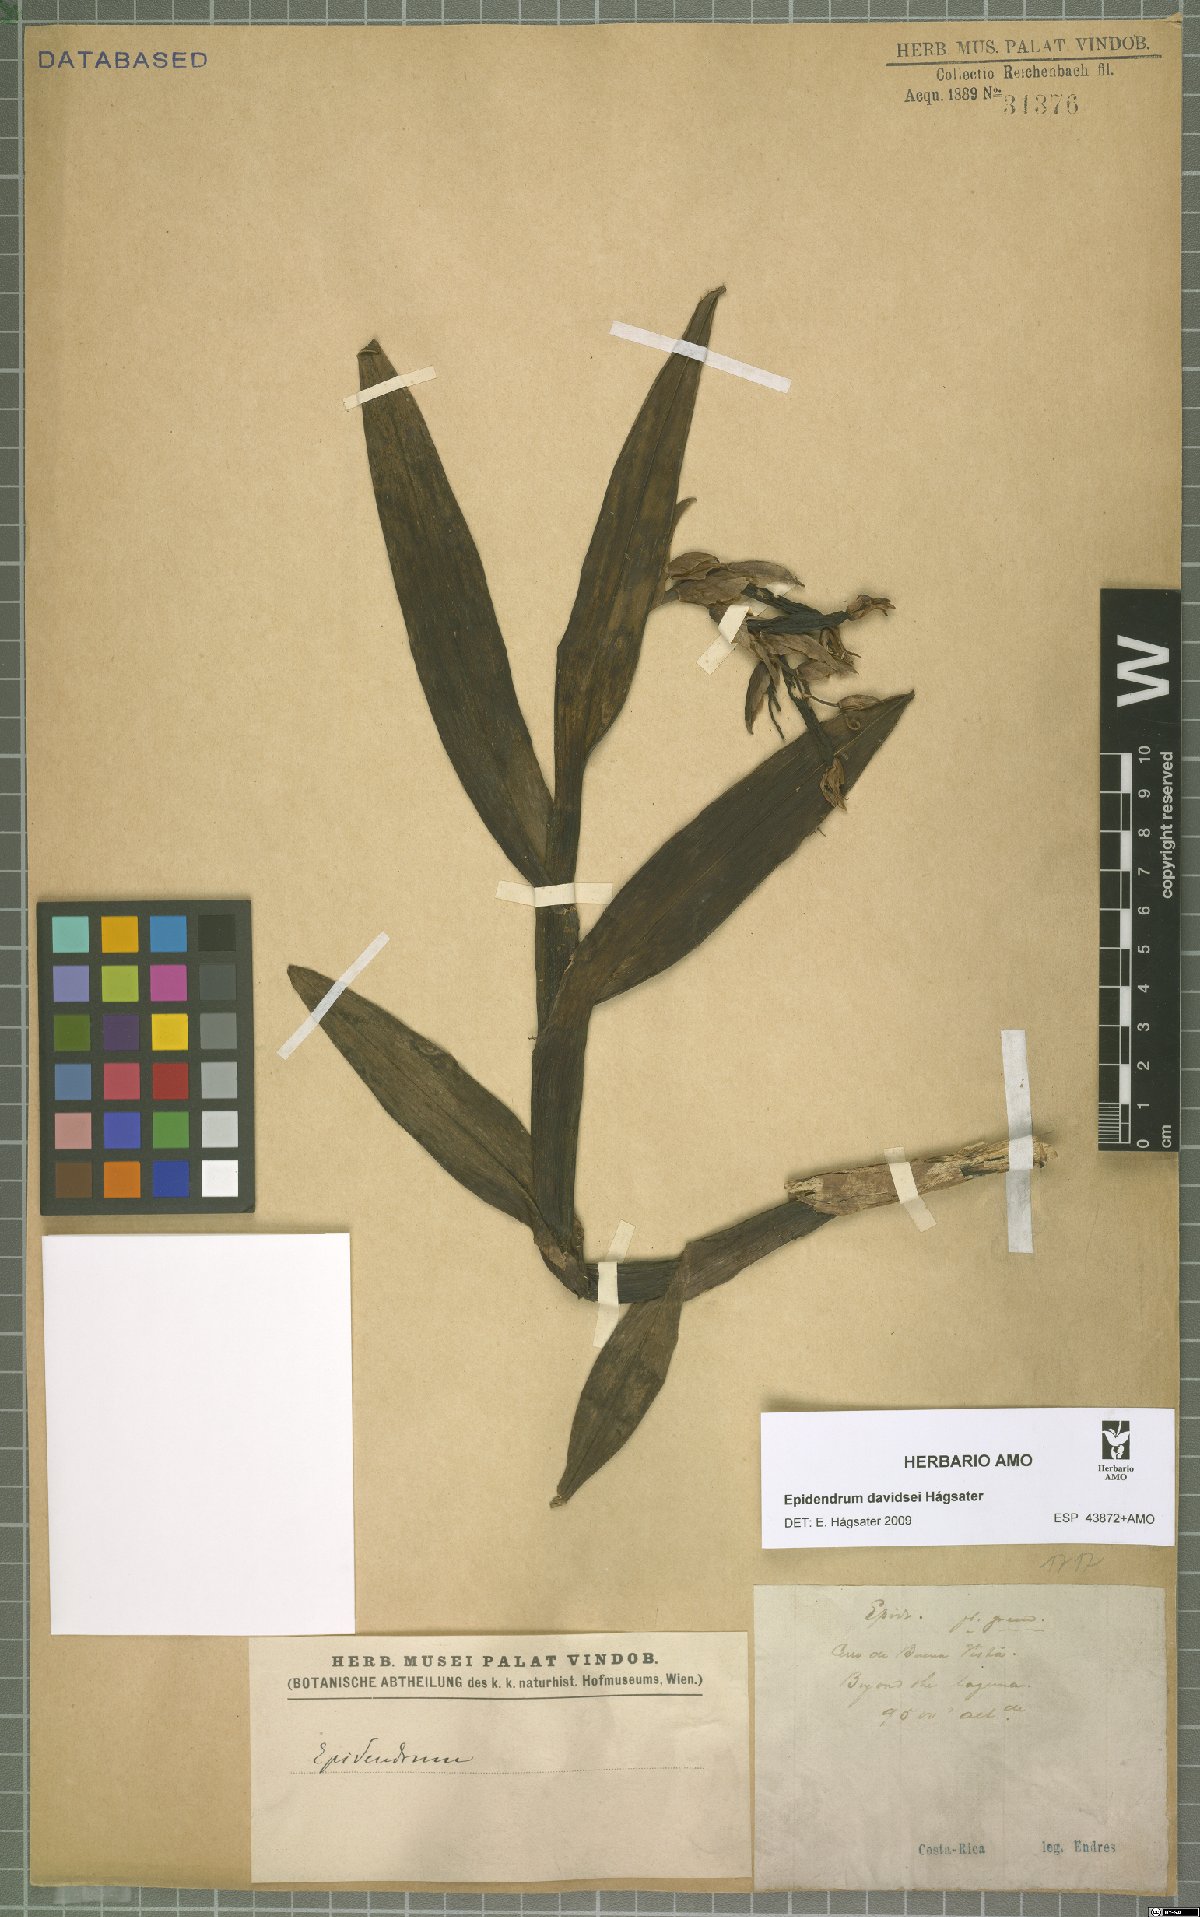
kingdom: Plantae
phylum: Tracheophyta
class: Liliopsida
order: Asparagales
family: Orchidaceae
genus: Epidendrum
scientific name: Epidendrum davidsei
